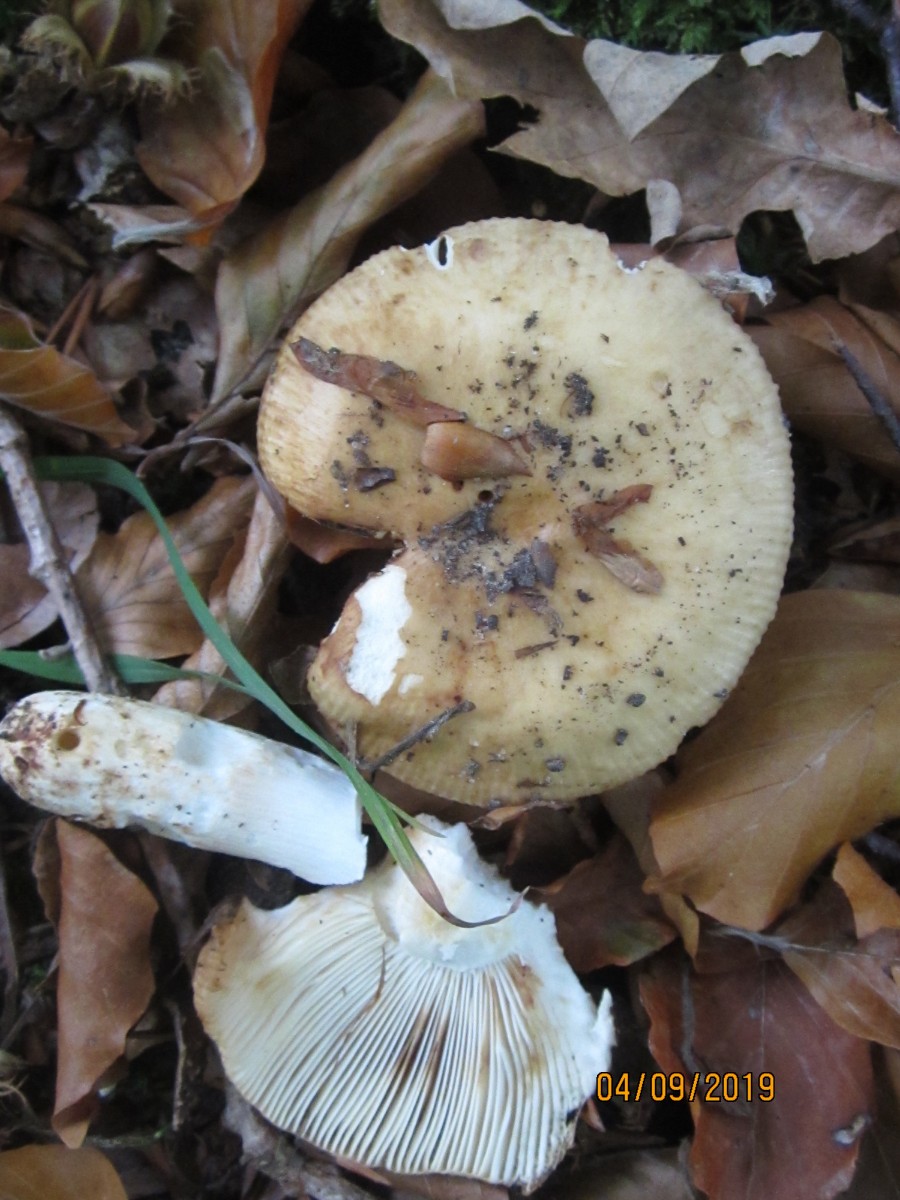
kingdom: Fungi
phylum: Basidiomycota
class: Agaricomycetes
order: Russulales
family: Russulaceae
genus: Russula
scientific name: Russula grata
